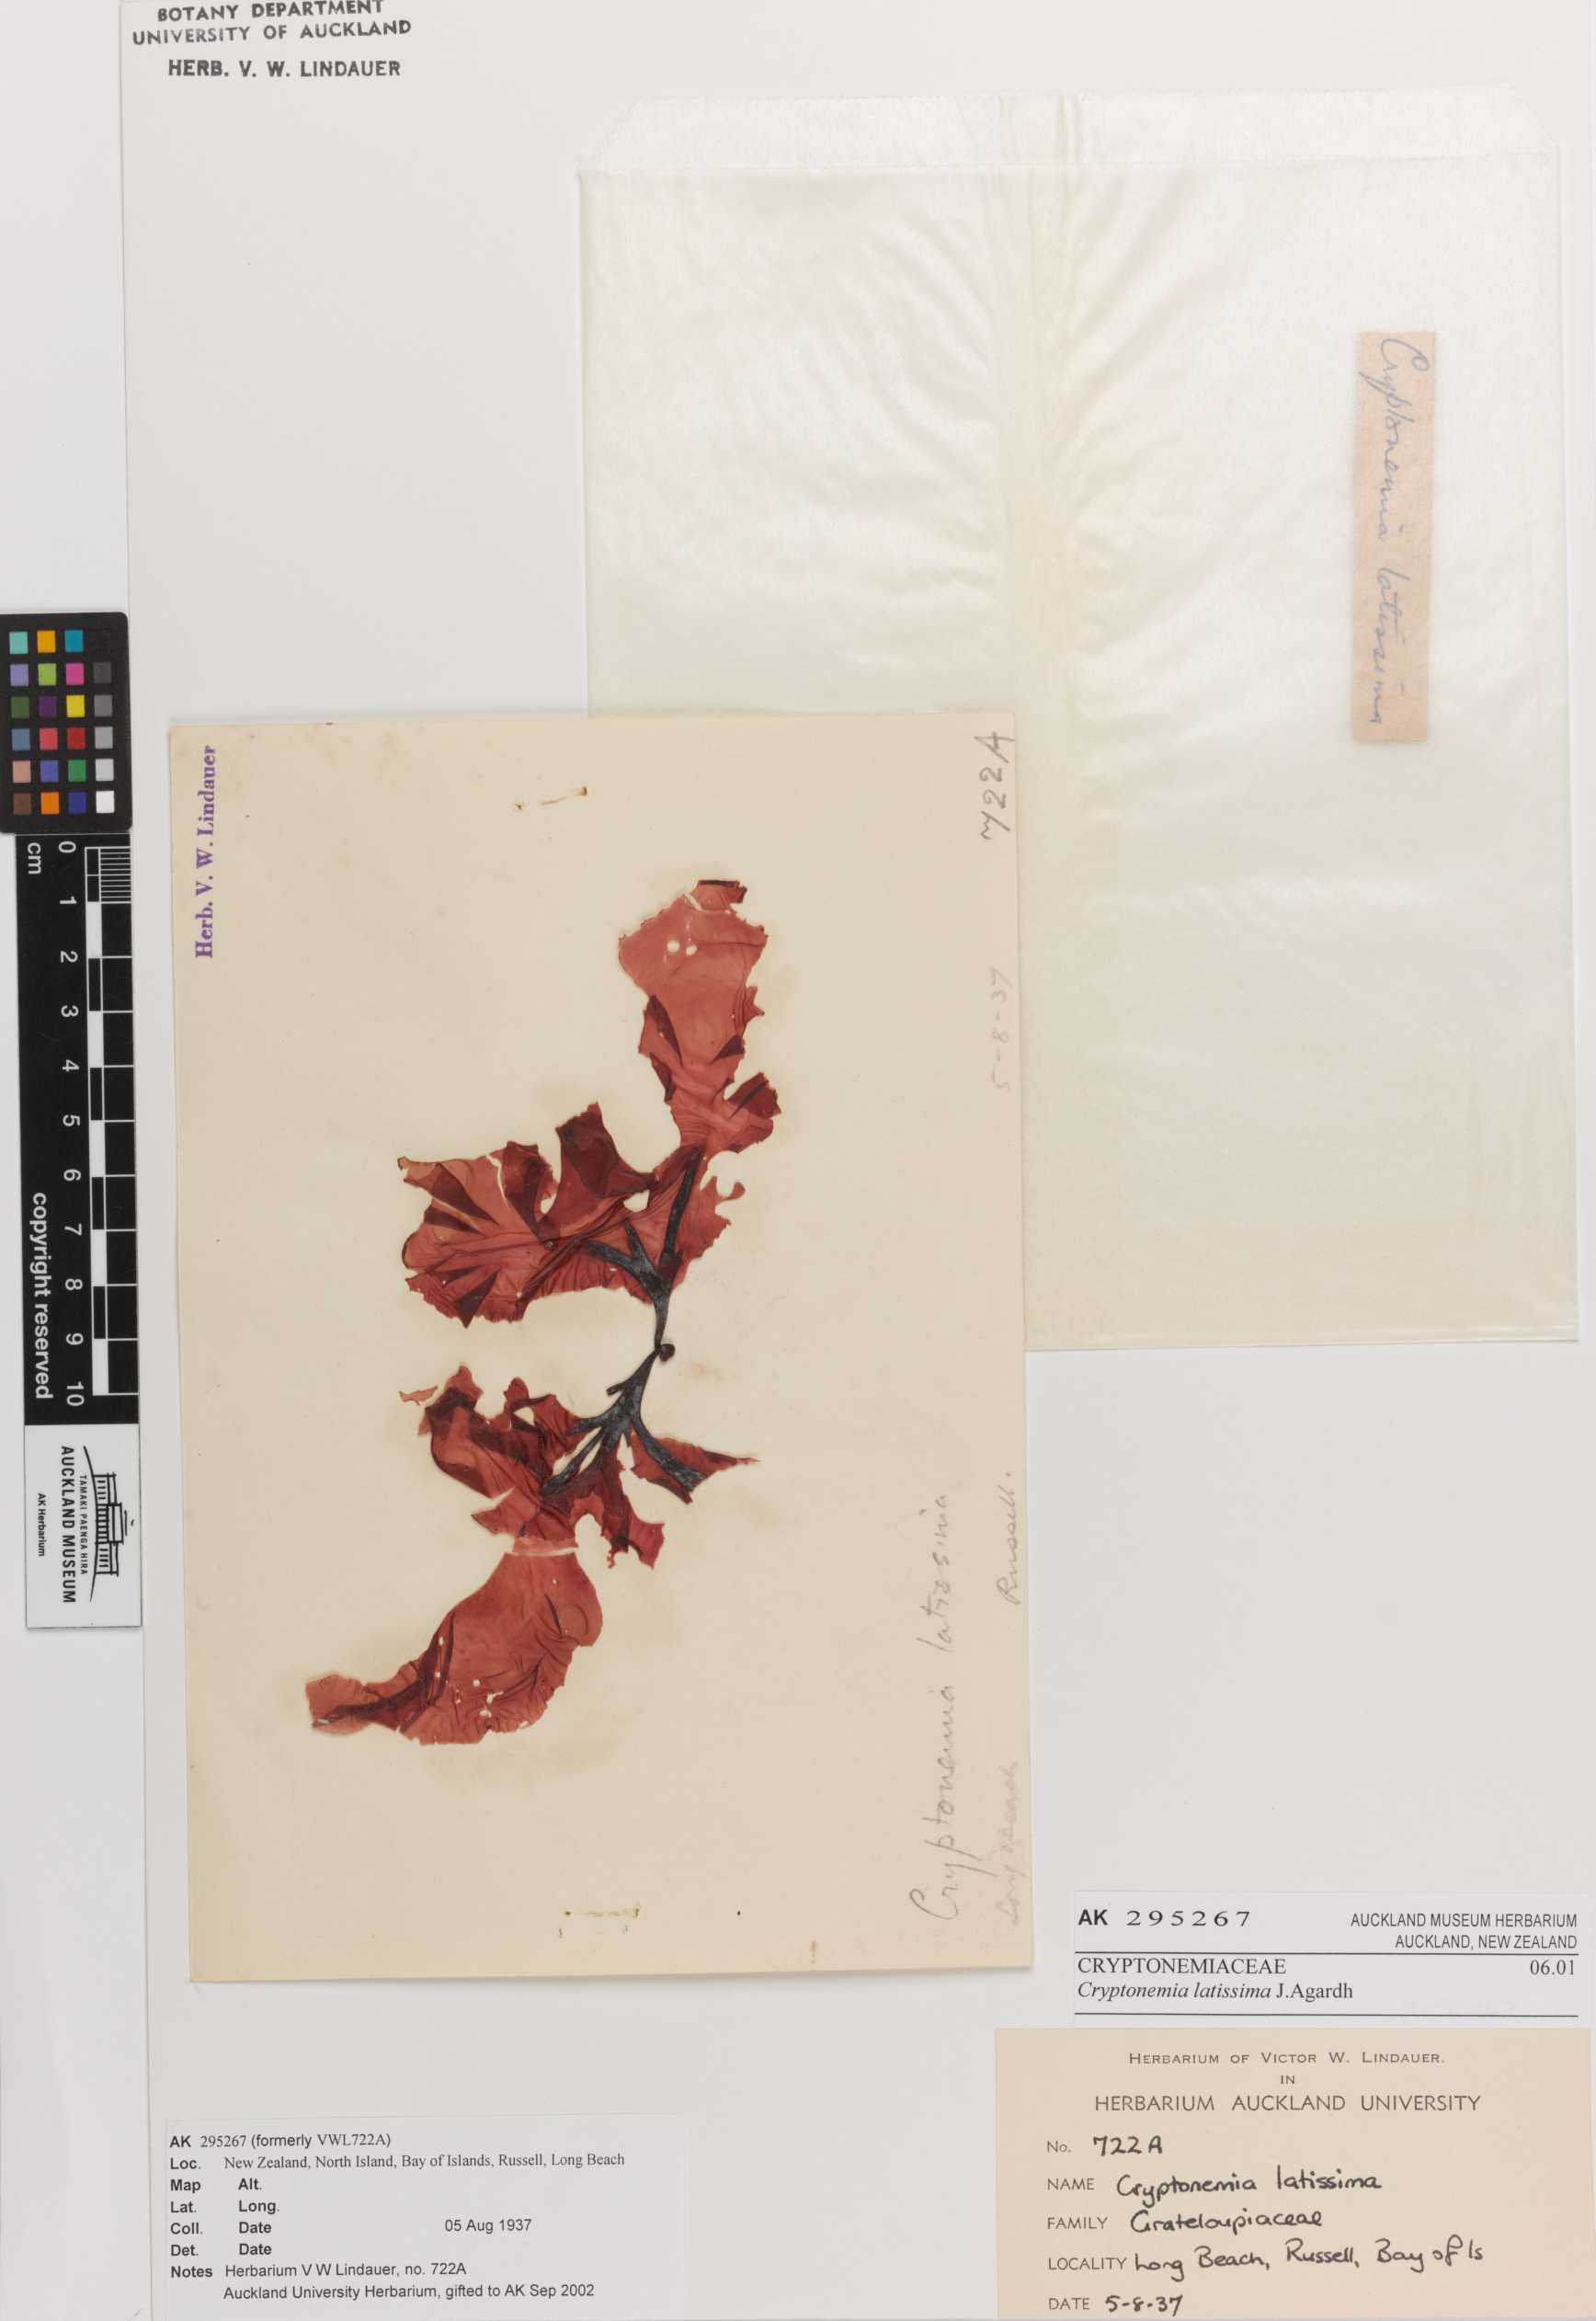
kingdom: Plantae
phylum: Rhodophyta
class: Florideophyceae
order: Halymeniales
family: Halymeniaceae
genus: Cryptonemia
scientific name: Cryptonemia latissima
